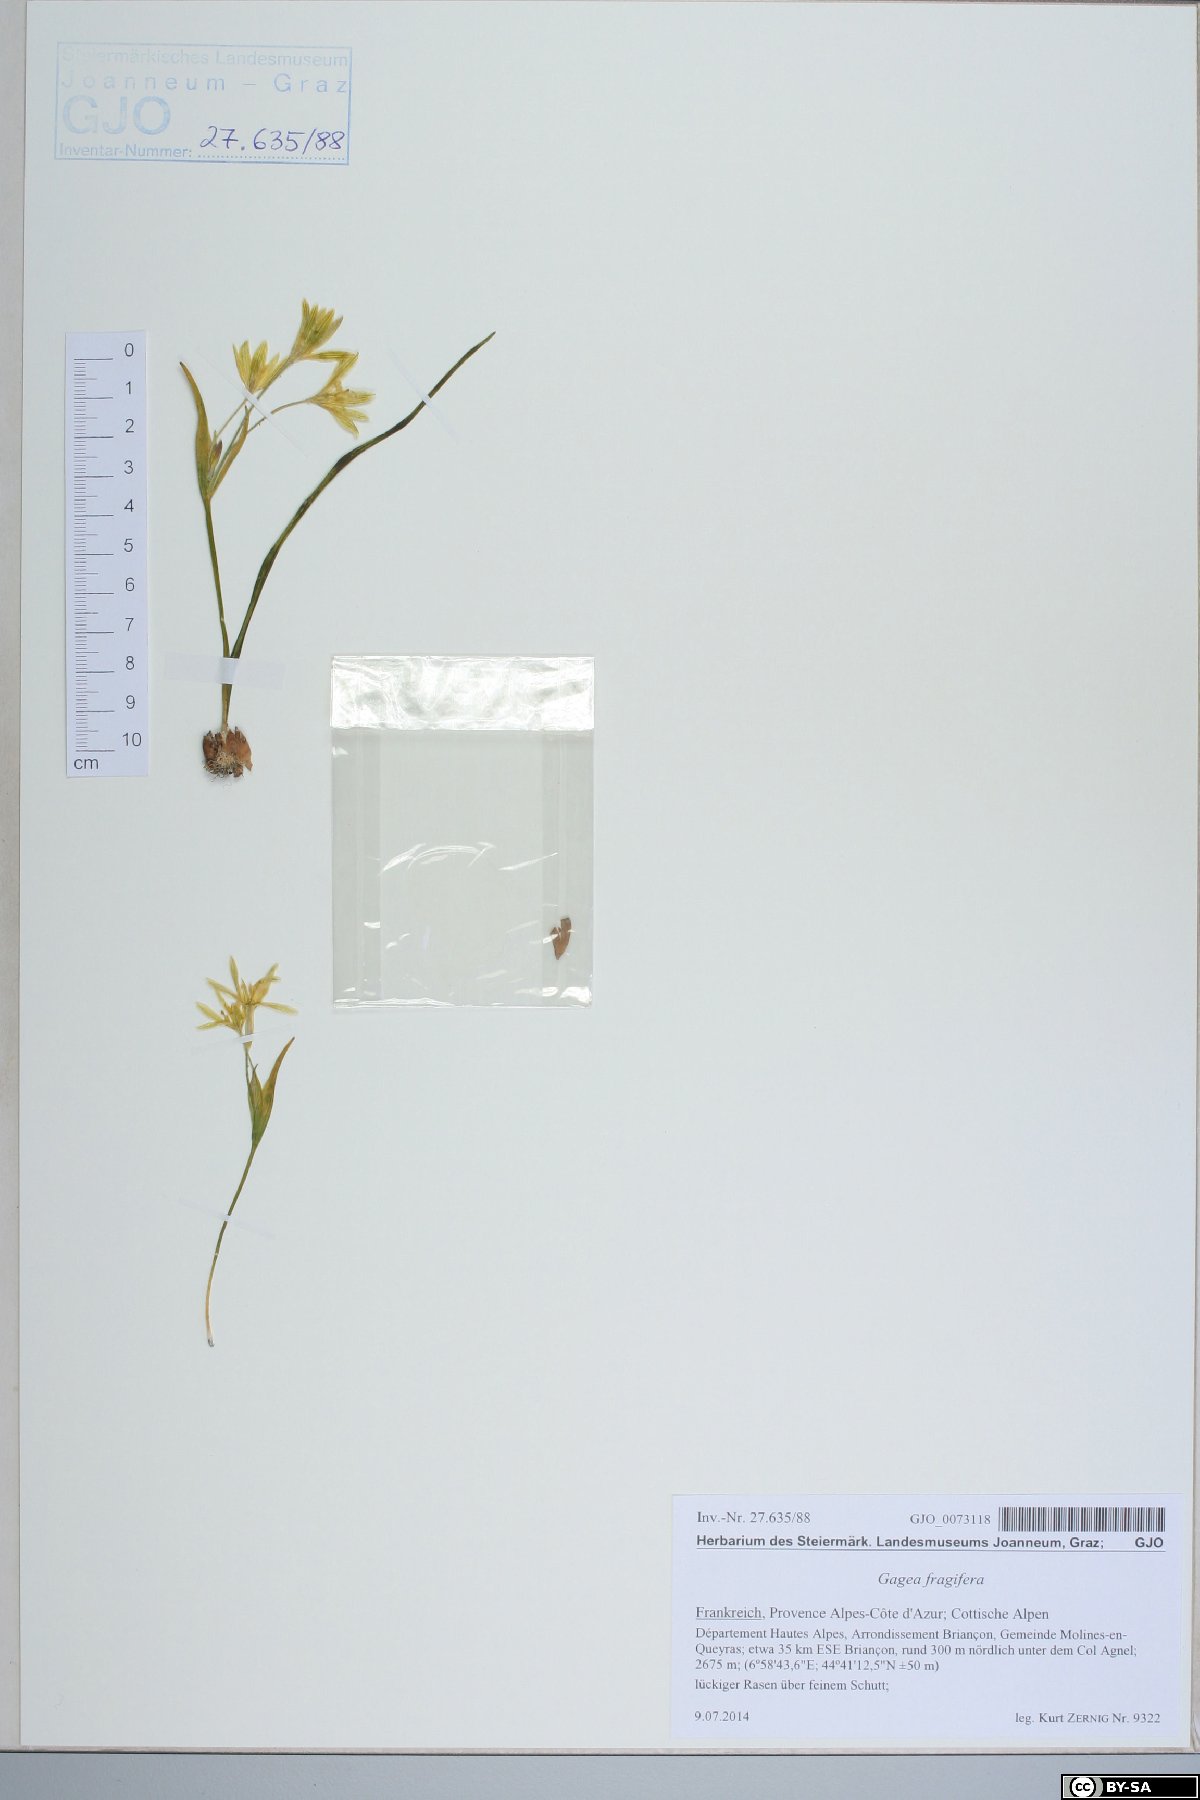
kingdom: Plantae
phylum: Tracheophyta
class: Liliopsida
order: Liliales
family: Liliaceae
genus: Gagea
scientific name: Gagea fragifera
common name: Lily
